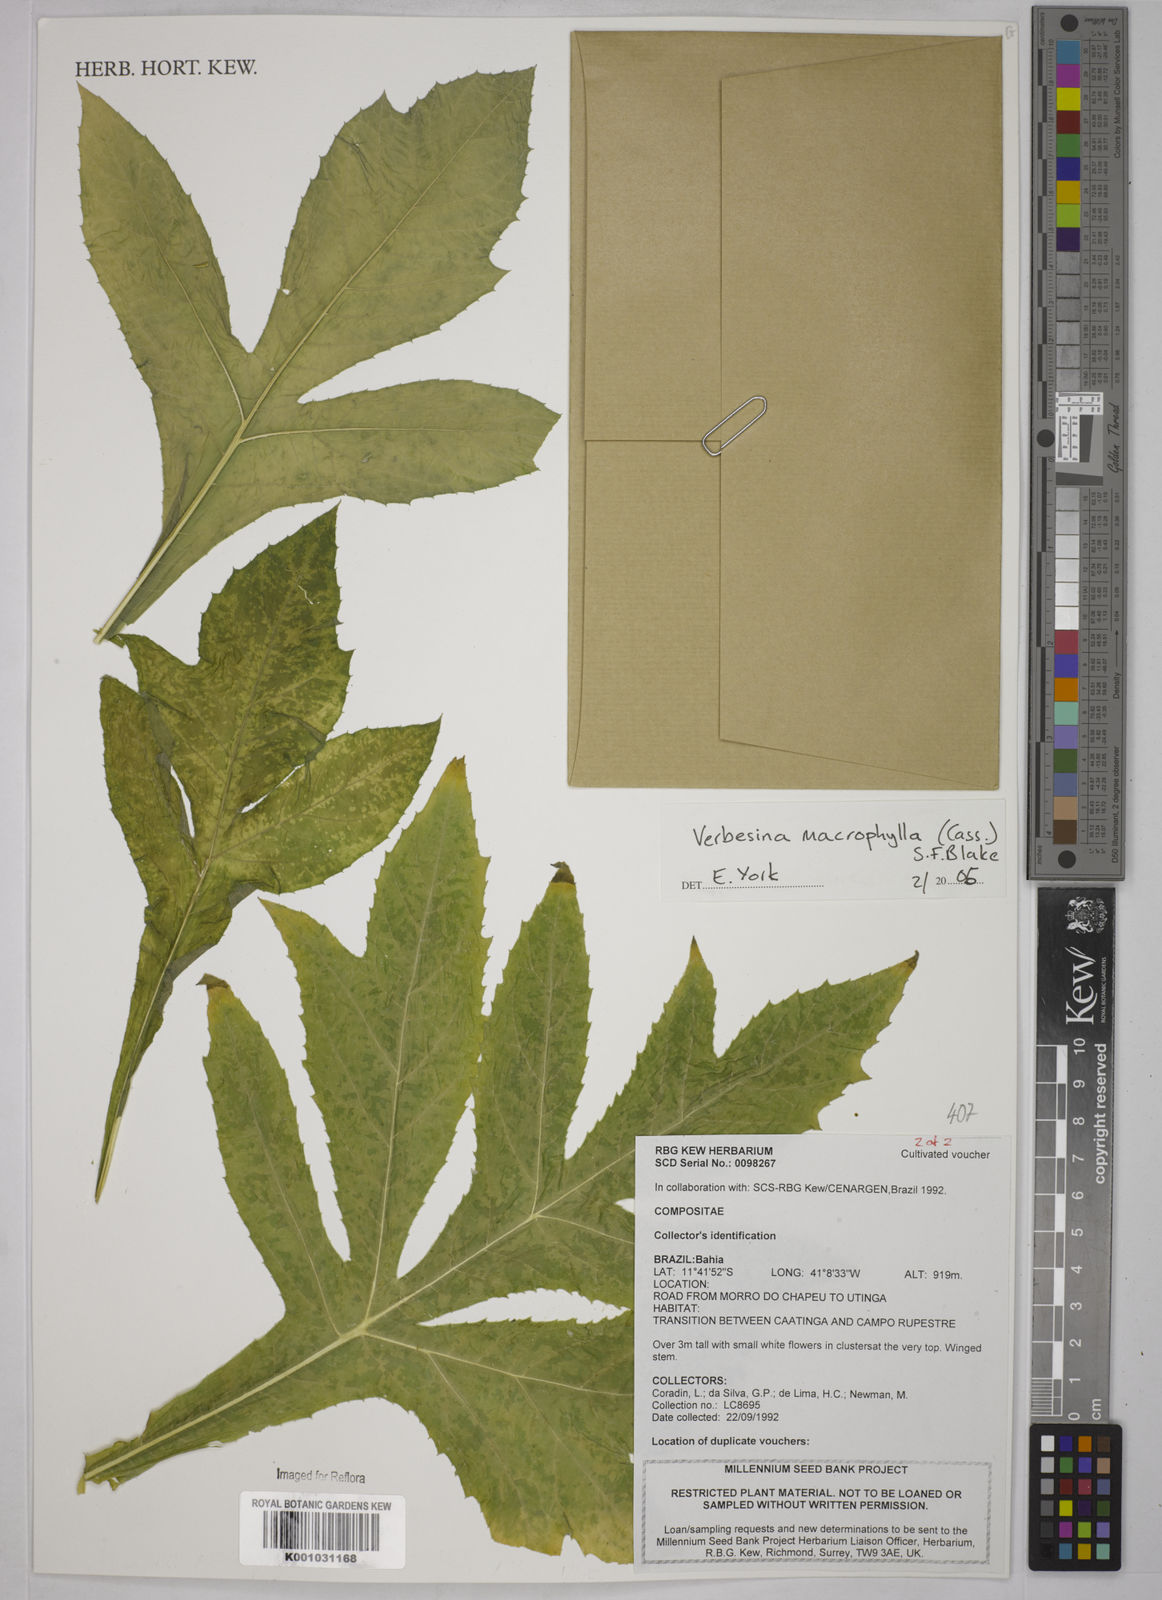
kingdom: Plantae
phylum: Tracheophyta
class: Magnoliopsida
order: Asterales
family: Asteraceae
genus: Verbesina
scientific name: Verbesina macrophylla
